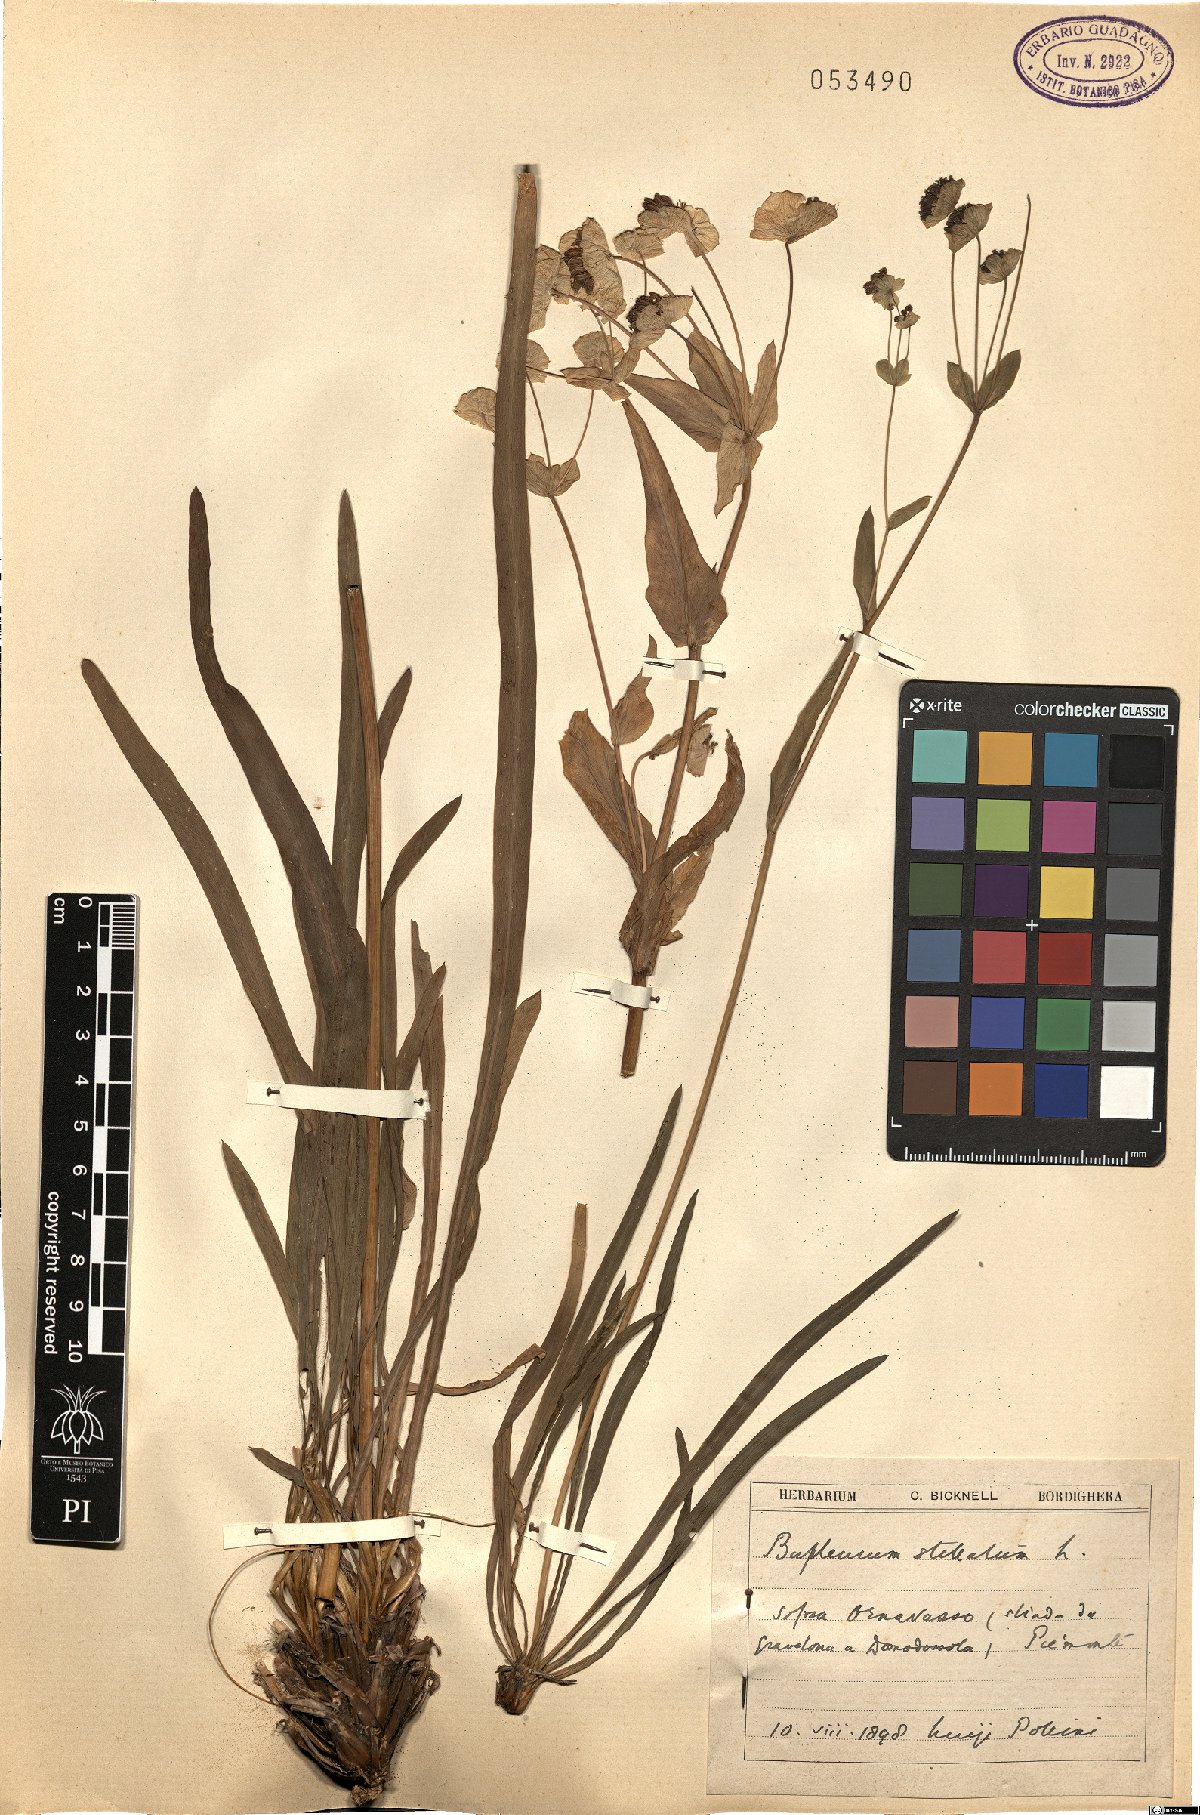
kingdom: Plantae
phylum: Tracheophyta
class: Magnoliopsida
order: Apiales
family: Apiaceae
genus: Bupleurum
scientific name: Bupleurum stellatum
